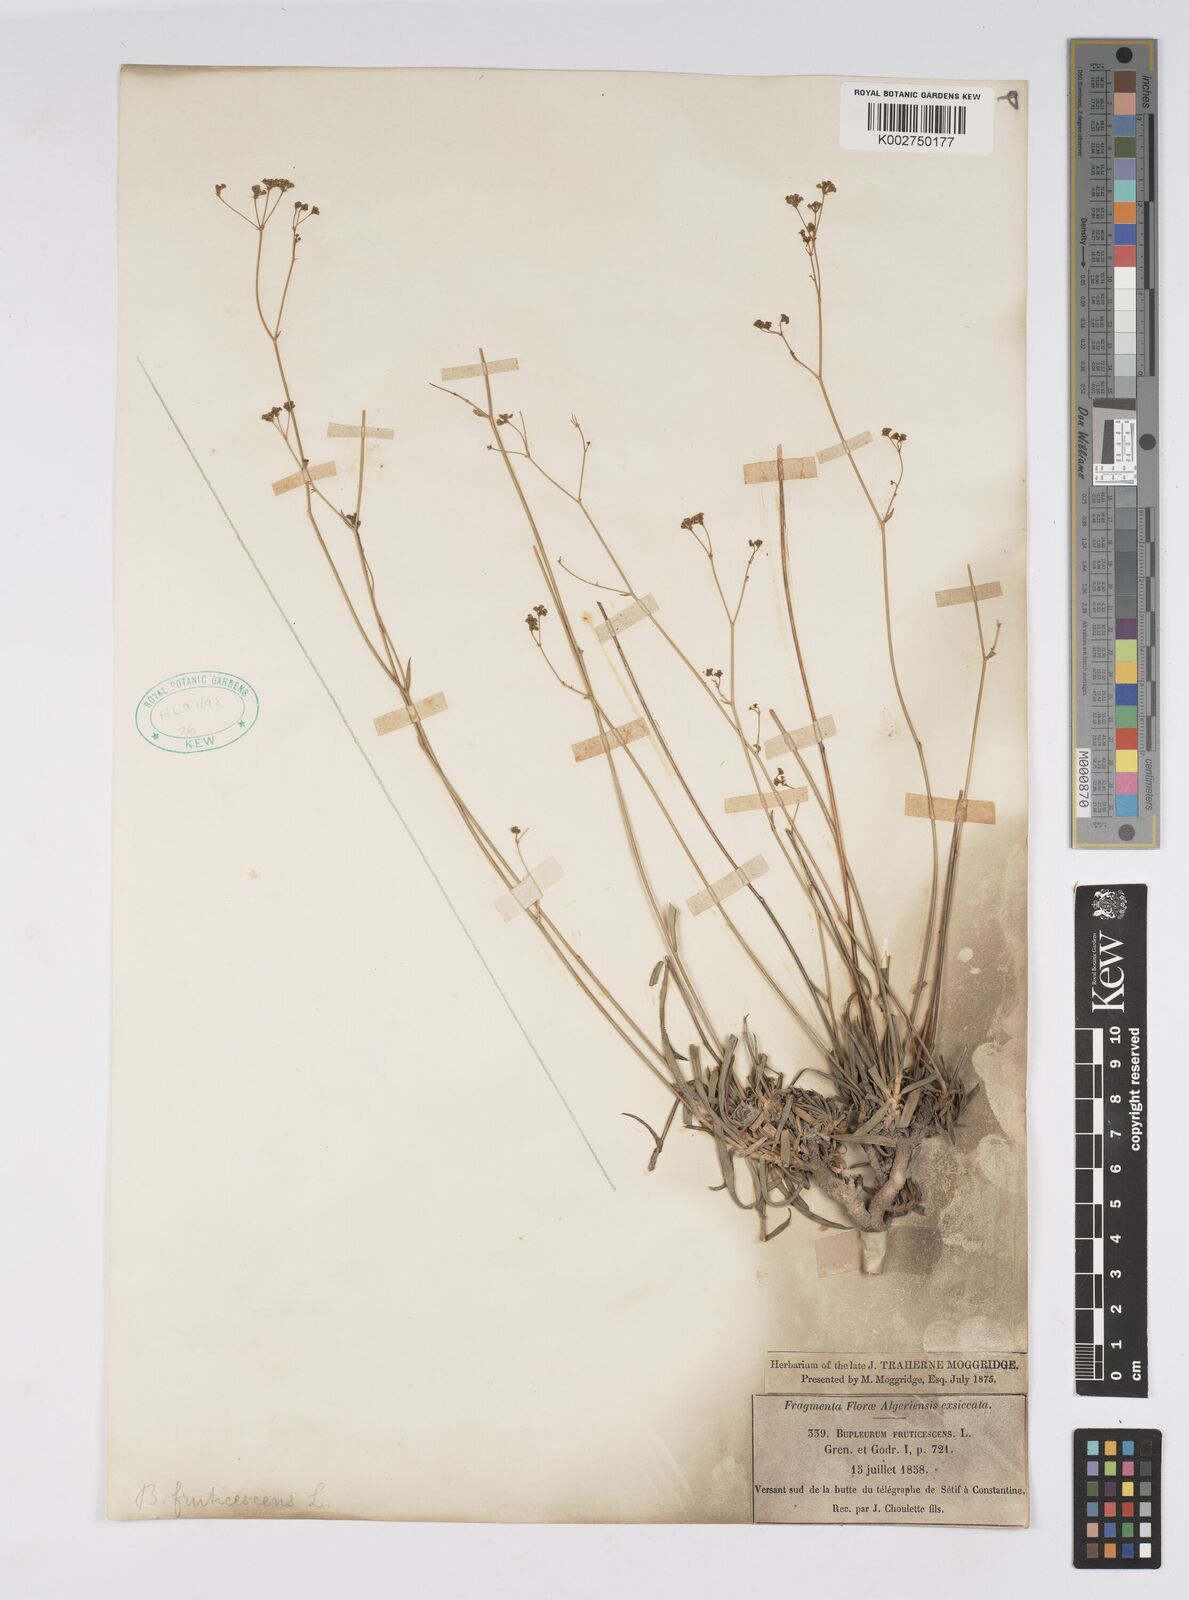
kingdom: Plantae
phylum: Tracheophyta
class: Magnoliopsida
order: Apiales
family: Apiaceae
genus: Bupleurum
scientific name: Bupleurum oligactis
